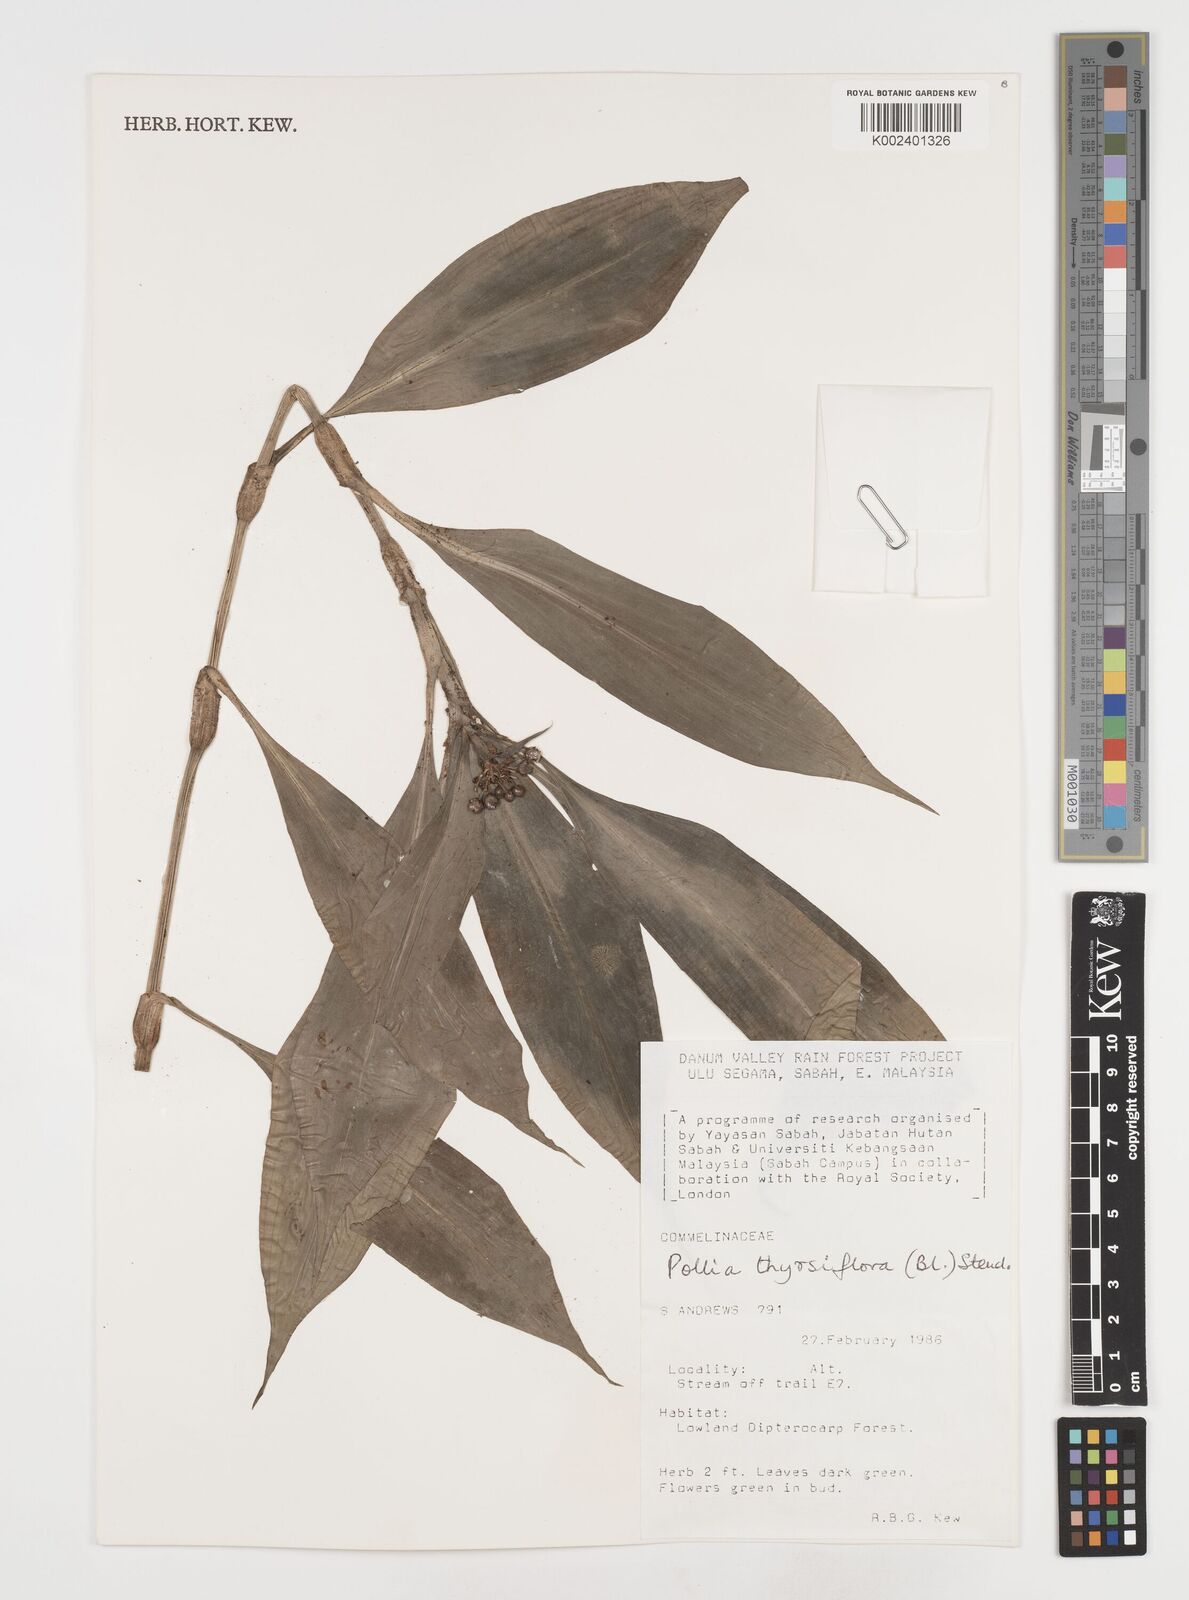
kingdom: Plantae
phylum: Tracheophyta
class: Liliopsida
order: Commelinales
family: Commelinaceae
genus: Pollia
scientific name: Pollia thyrsiflora
